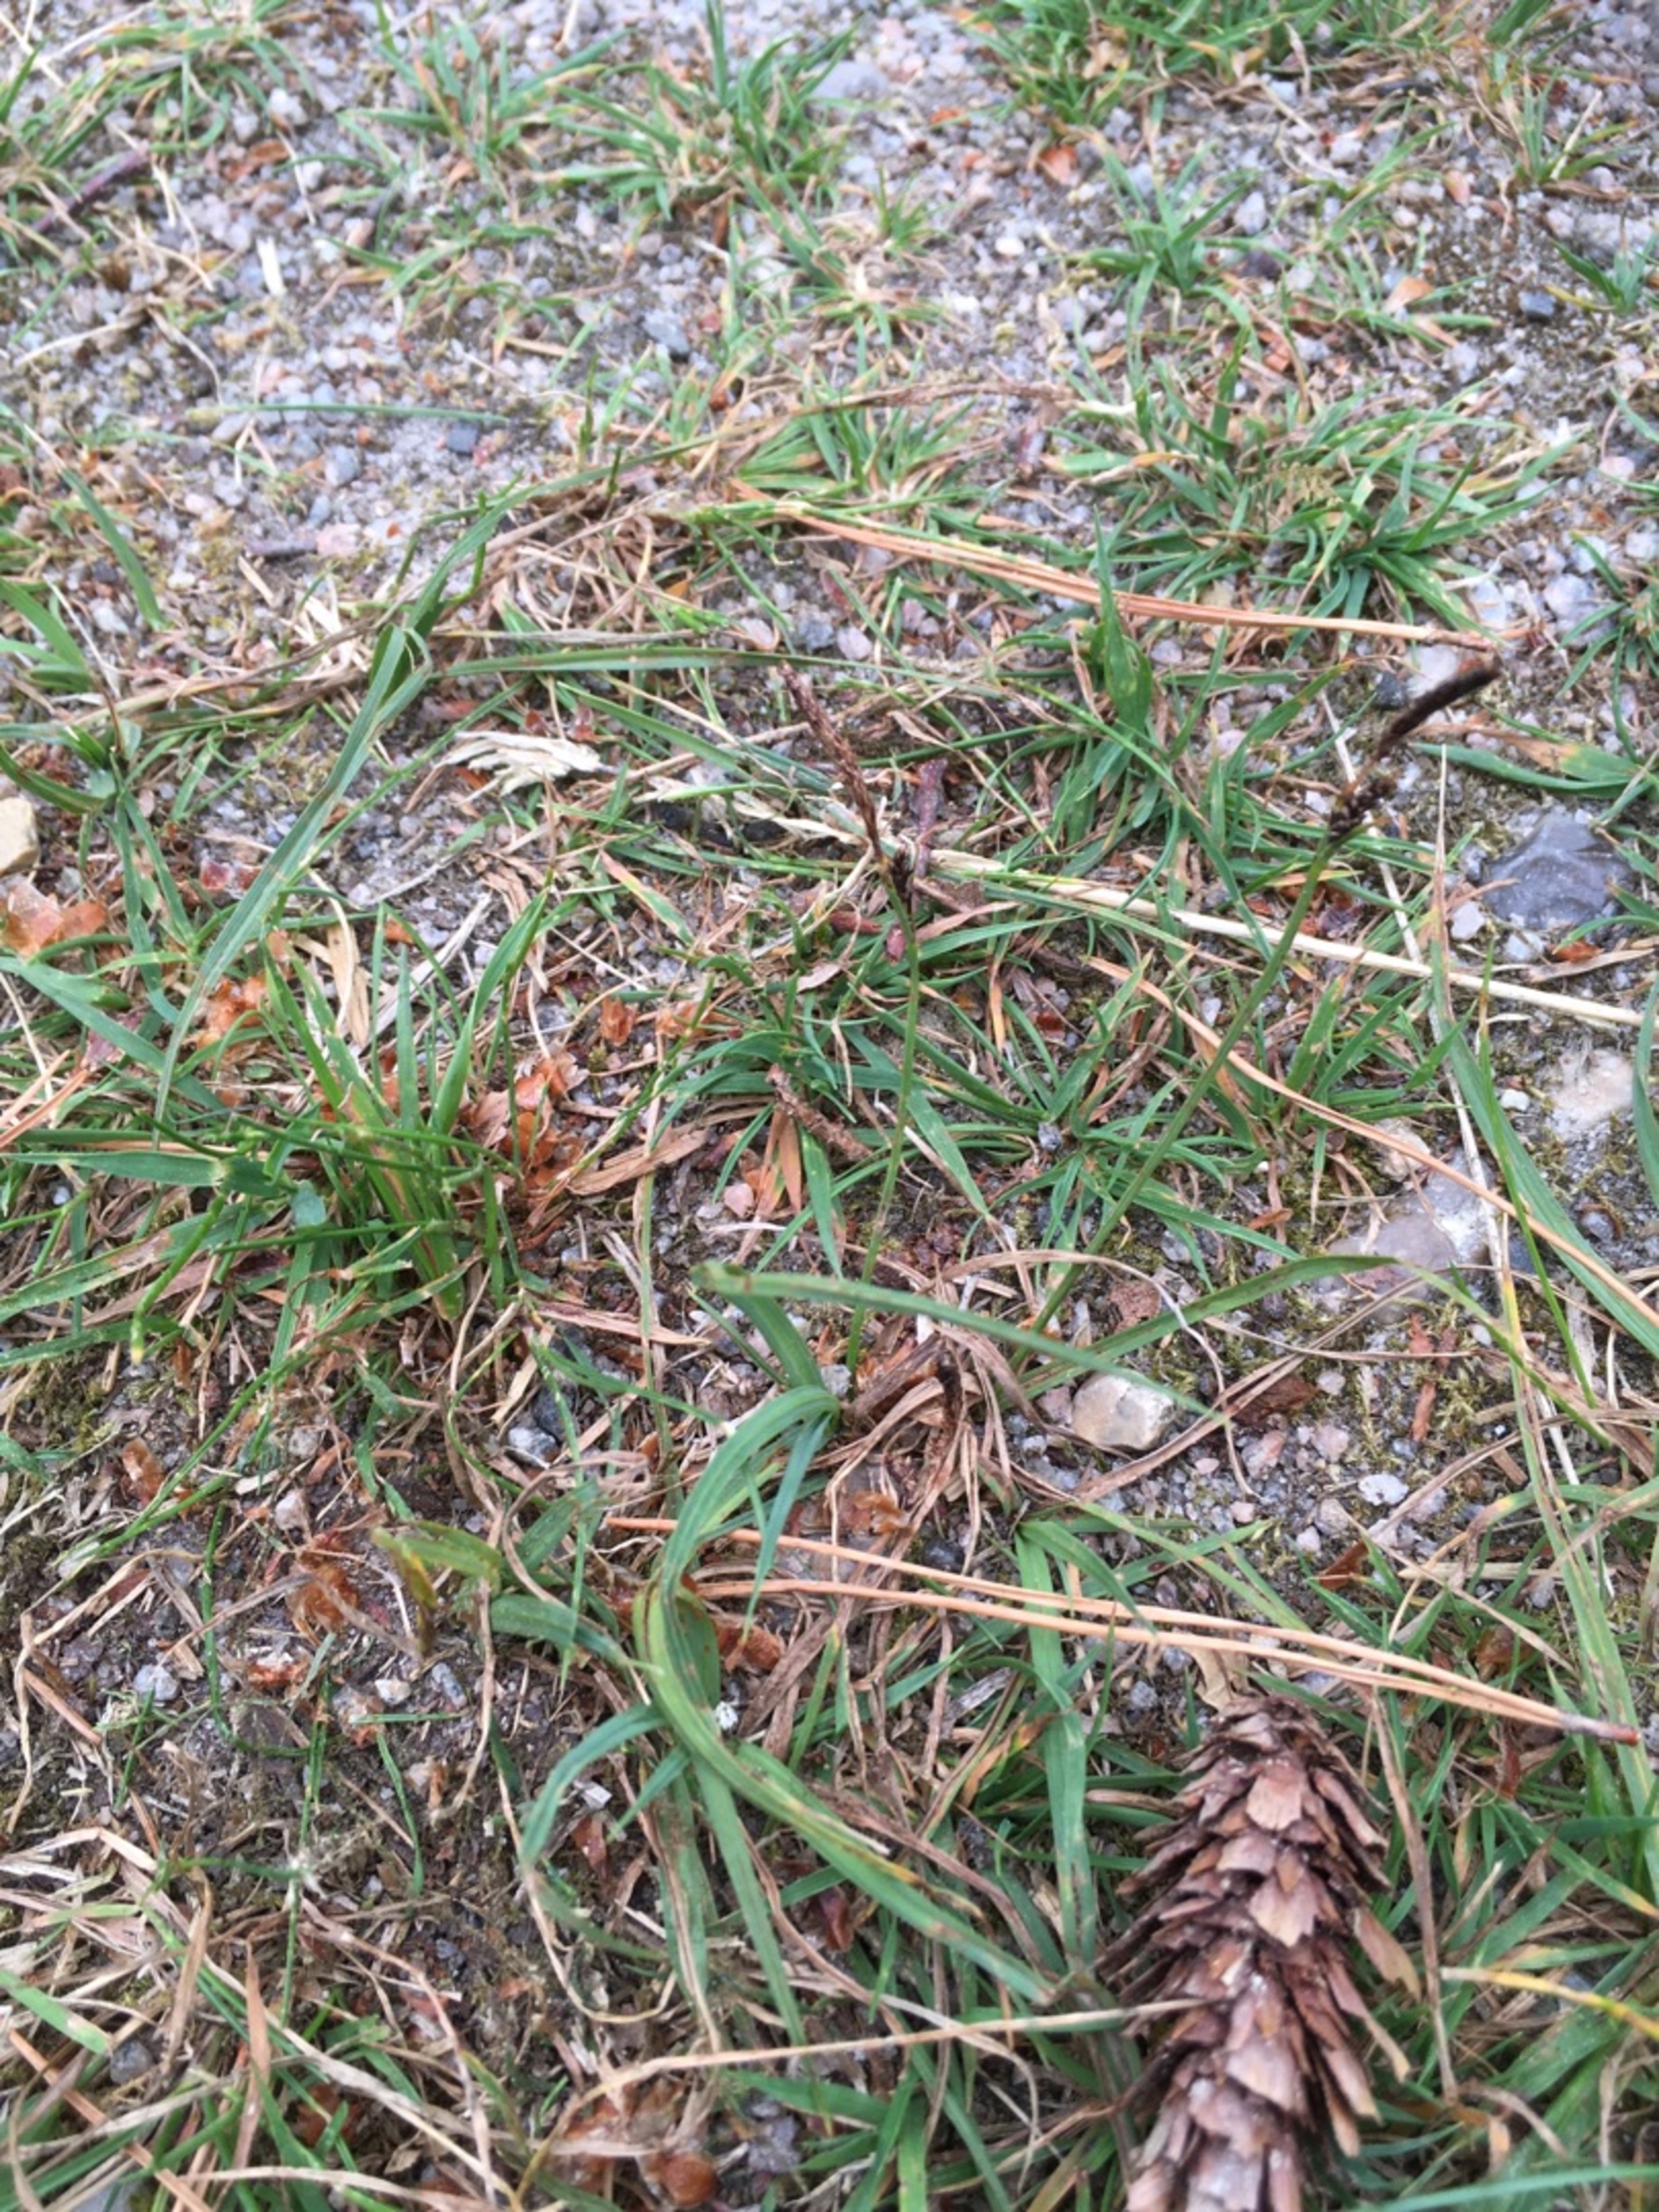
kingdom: Plantae
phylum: Tracheophyta
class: Liliopsida
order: Poales
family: Cyperaceae
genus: Carex
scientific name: Carex caryophyllea
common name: Vår-star
